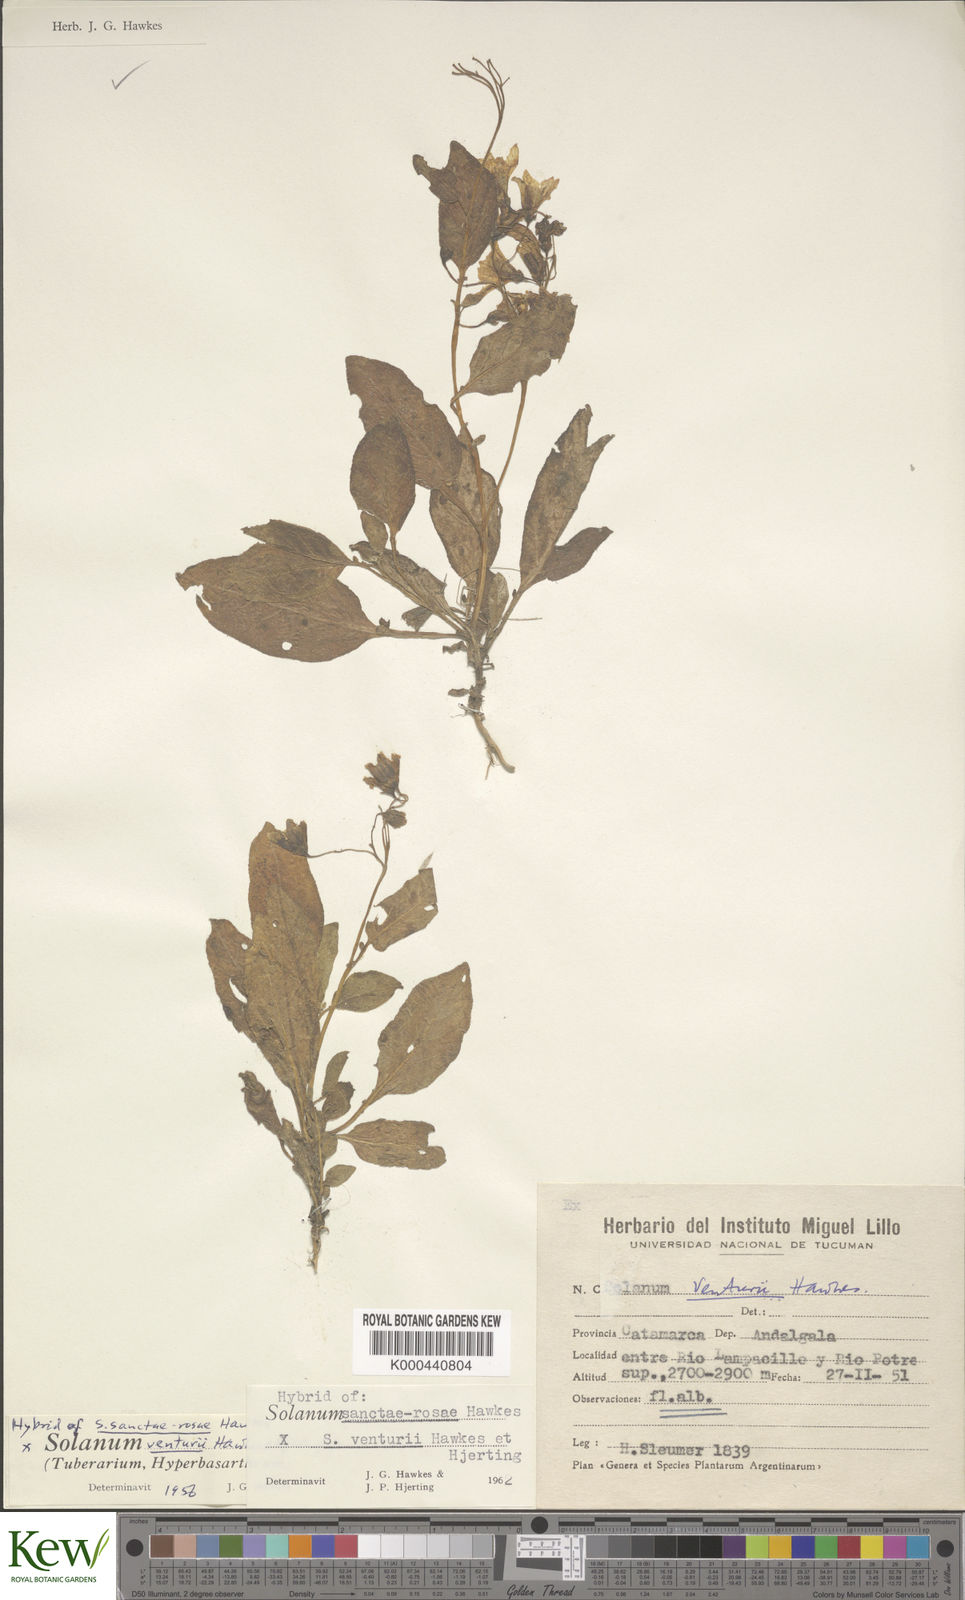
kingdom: Plantae
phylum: Tracheophyta
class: Magnoliopsida
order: Solanales
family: Solanaceae
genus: Solanum
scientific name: Solanum boliviense
